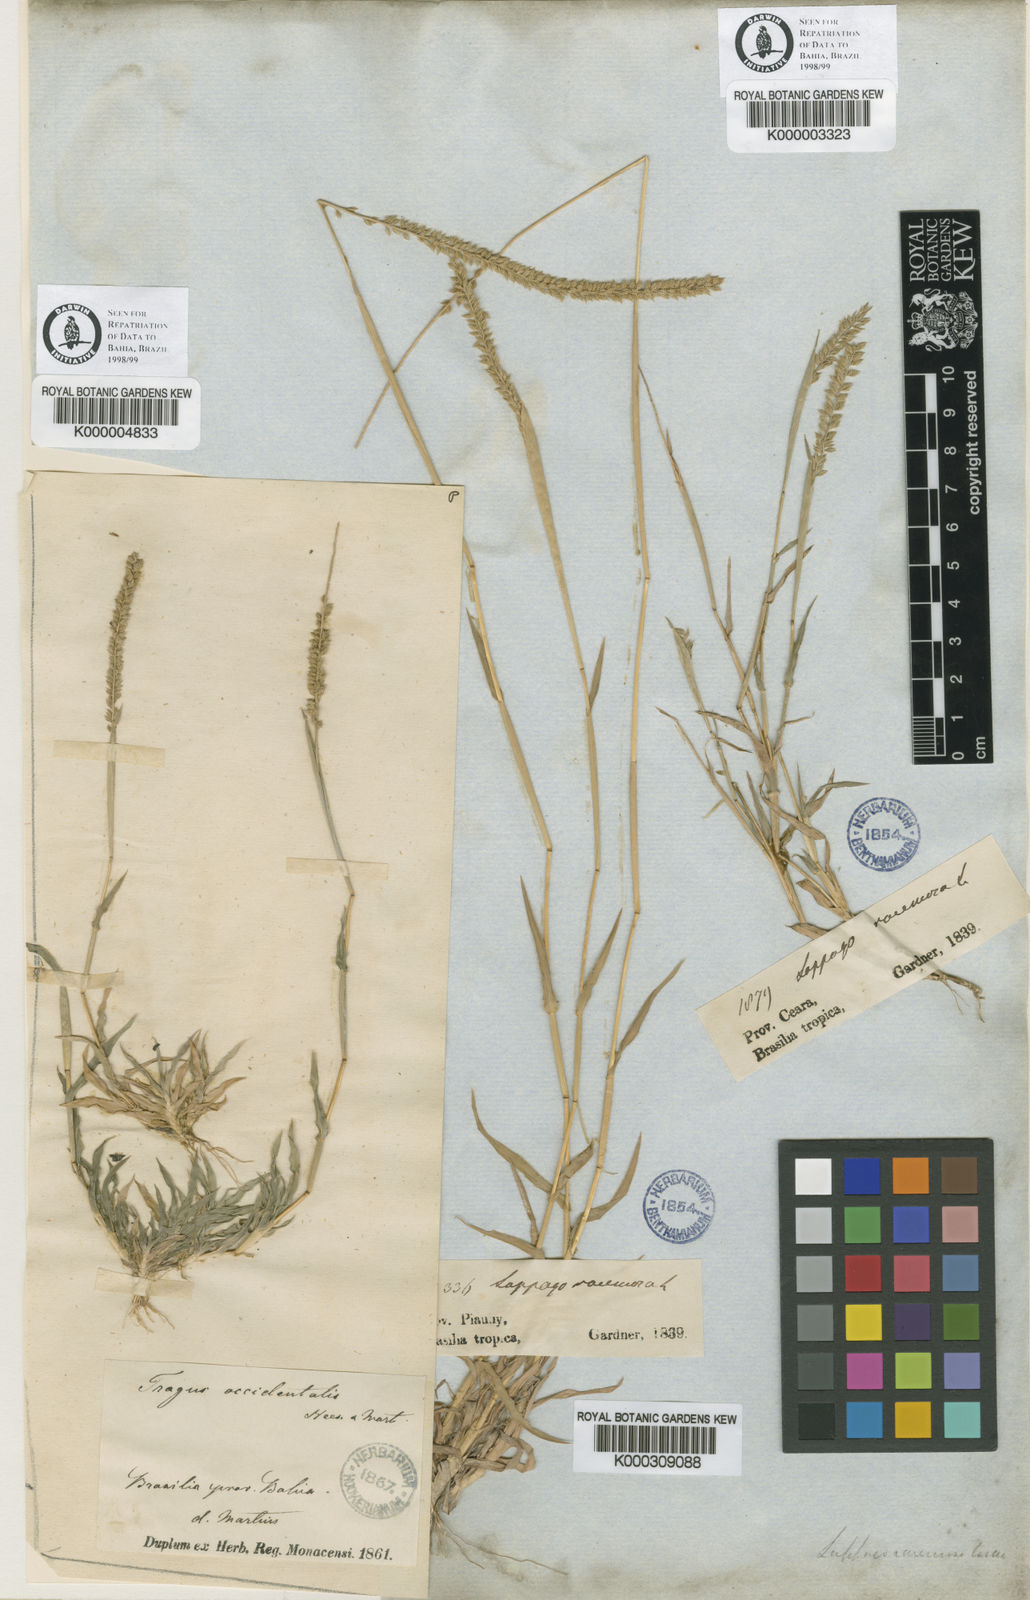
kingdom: Plantae
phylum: Tracheophyta
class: Liliopsida
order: Poales
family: Poaceae
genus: Tragus
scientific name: Tragus berteronianus
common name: African bur-grass
